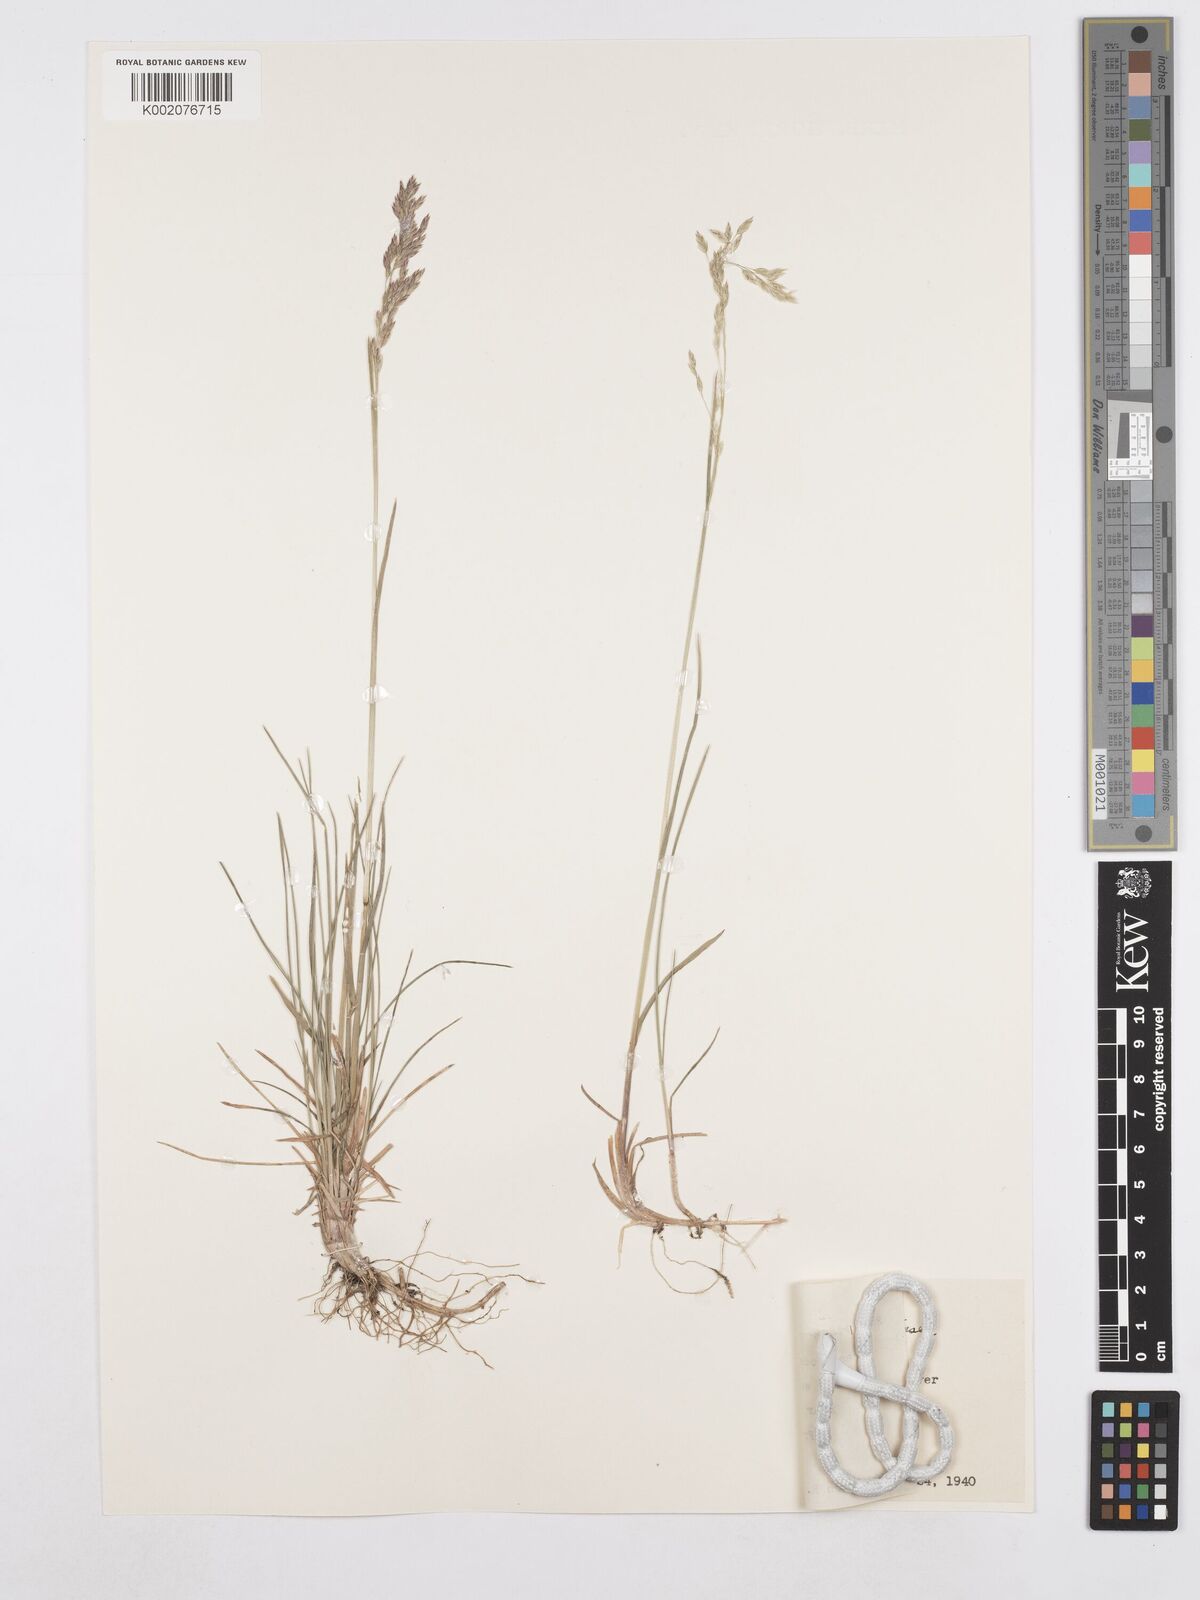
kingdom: Plantae
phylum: Tracheophyta
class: Liliopsida
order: Poales
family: Poaceae
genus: Poa
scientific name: Poa nervosa
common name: Hooker's bluegrass
